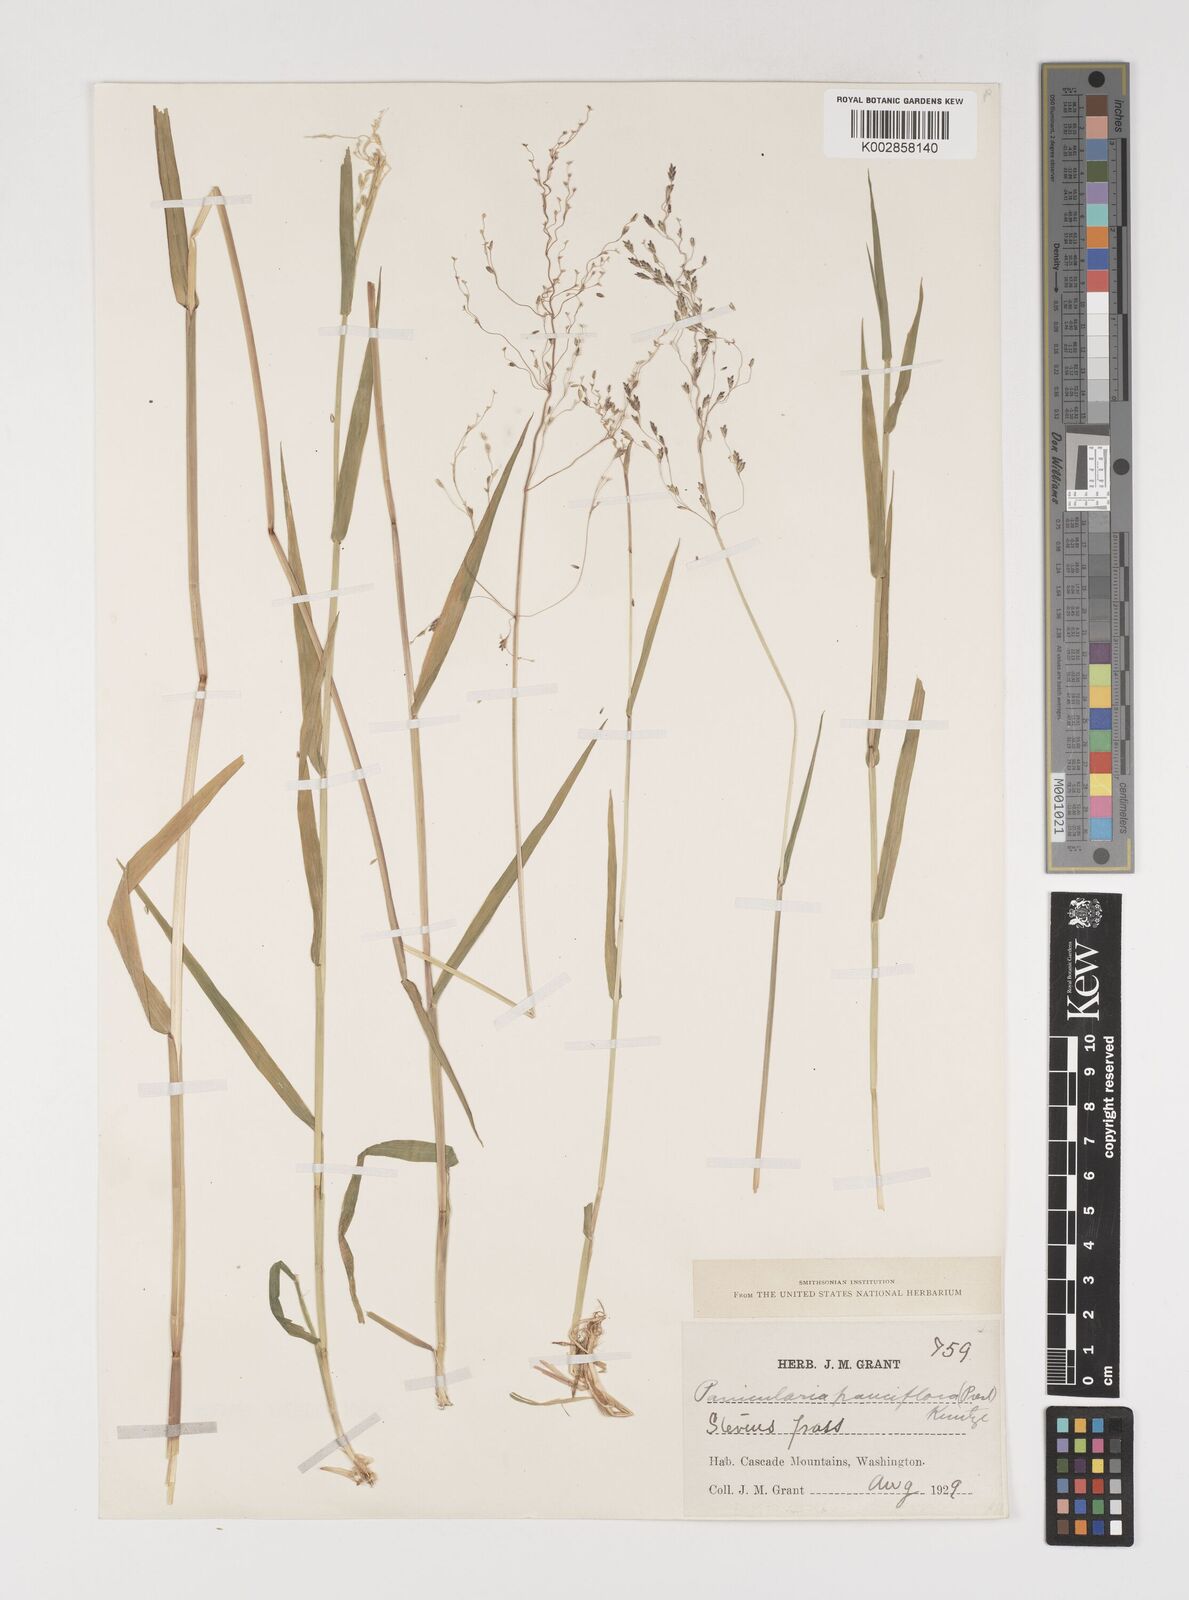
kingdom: Plantae
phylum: Tracheophyta
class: Liliopsida
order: Poales
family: Poaceae
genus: Torreyochloa
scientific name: Torreyochloa pallida
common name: Pale false mannagrass
